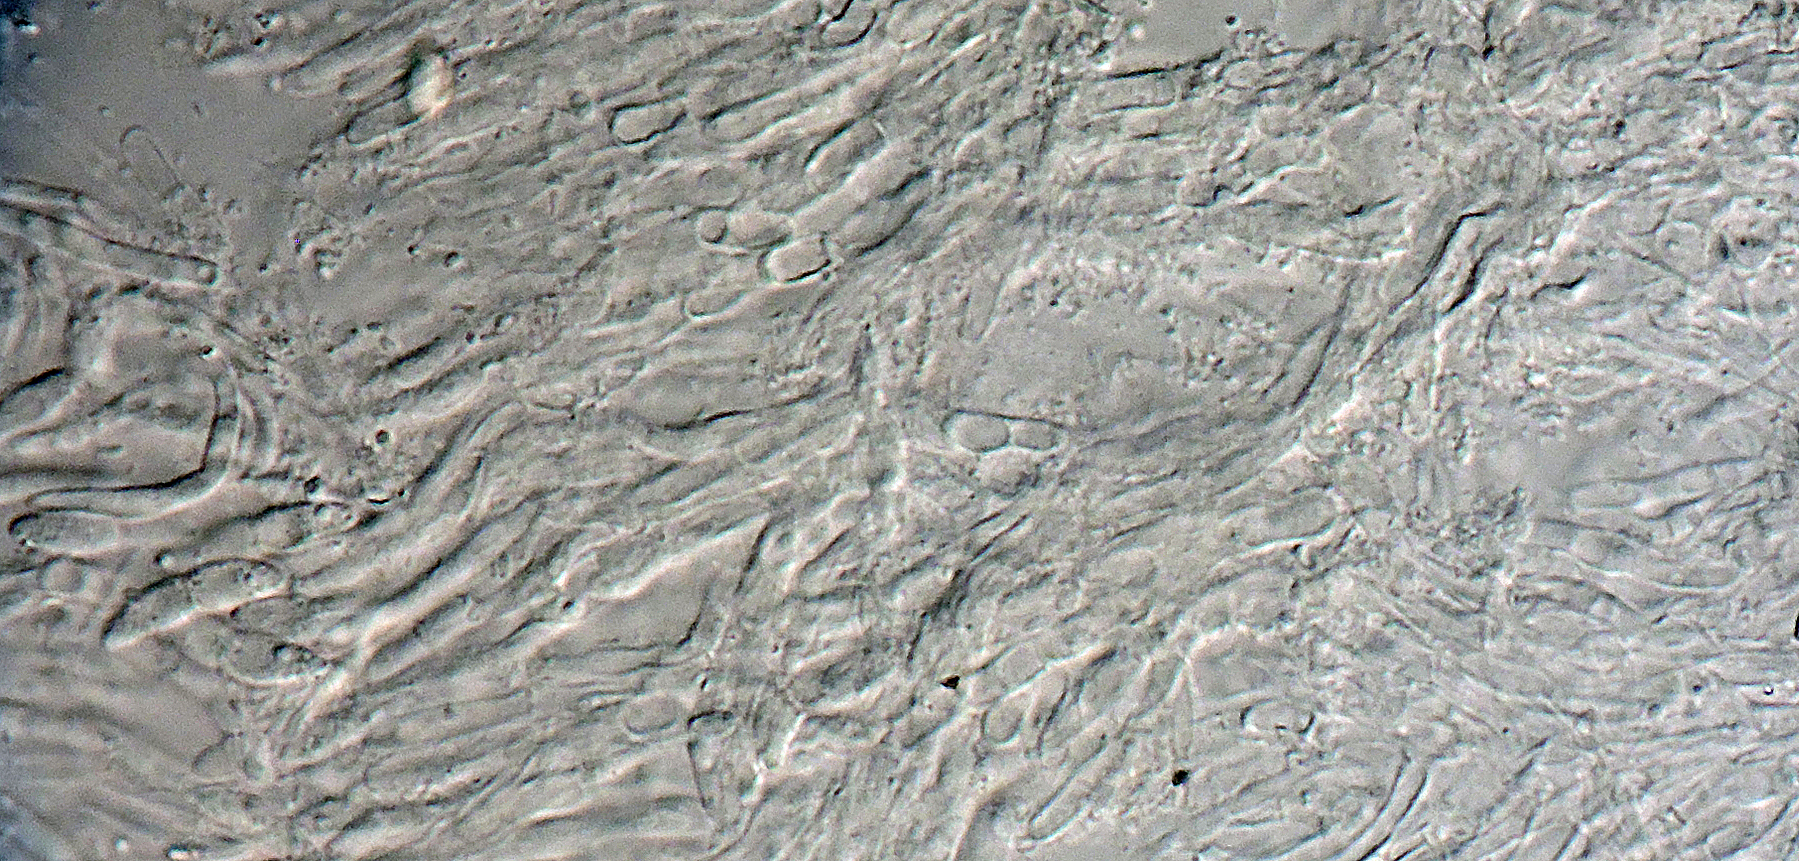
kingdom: Fungi
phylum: Ascomycota
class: Leotiomycetes
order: Helotiales
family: Pezizellaceae
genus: Calycellina
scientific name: Calycellina populina
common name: bleggul hårskive
